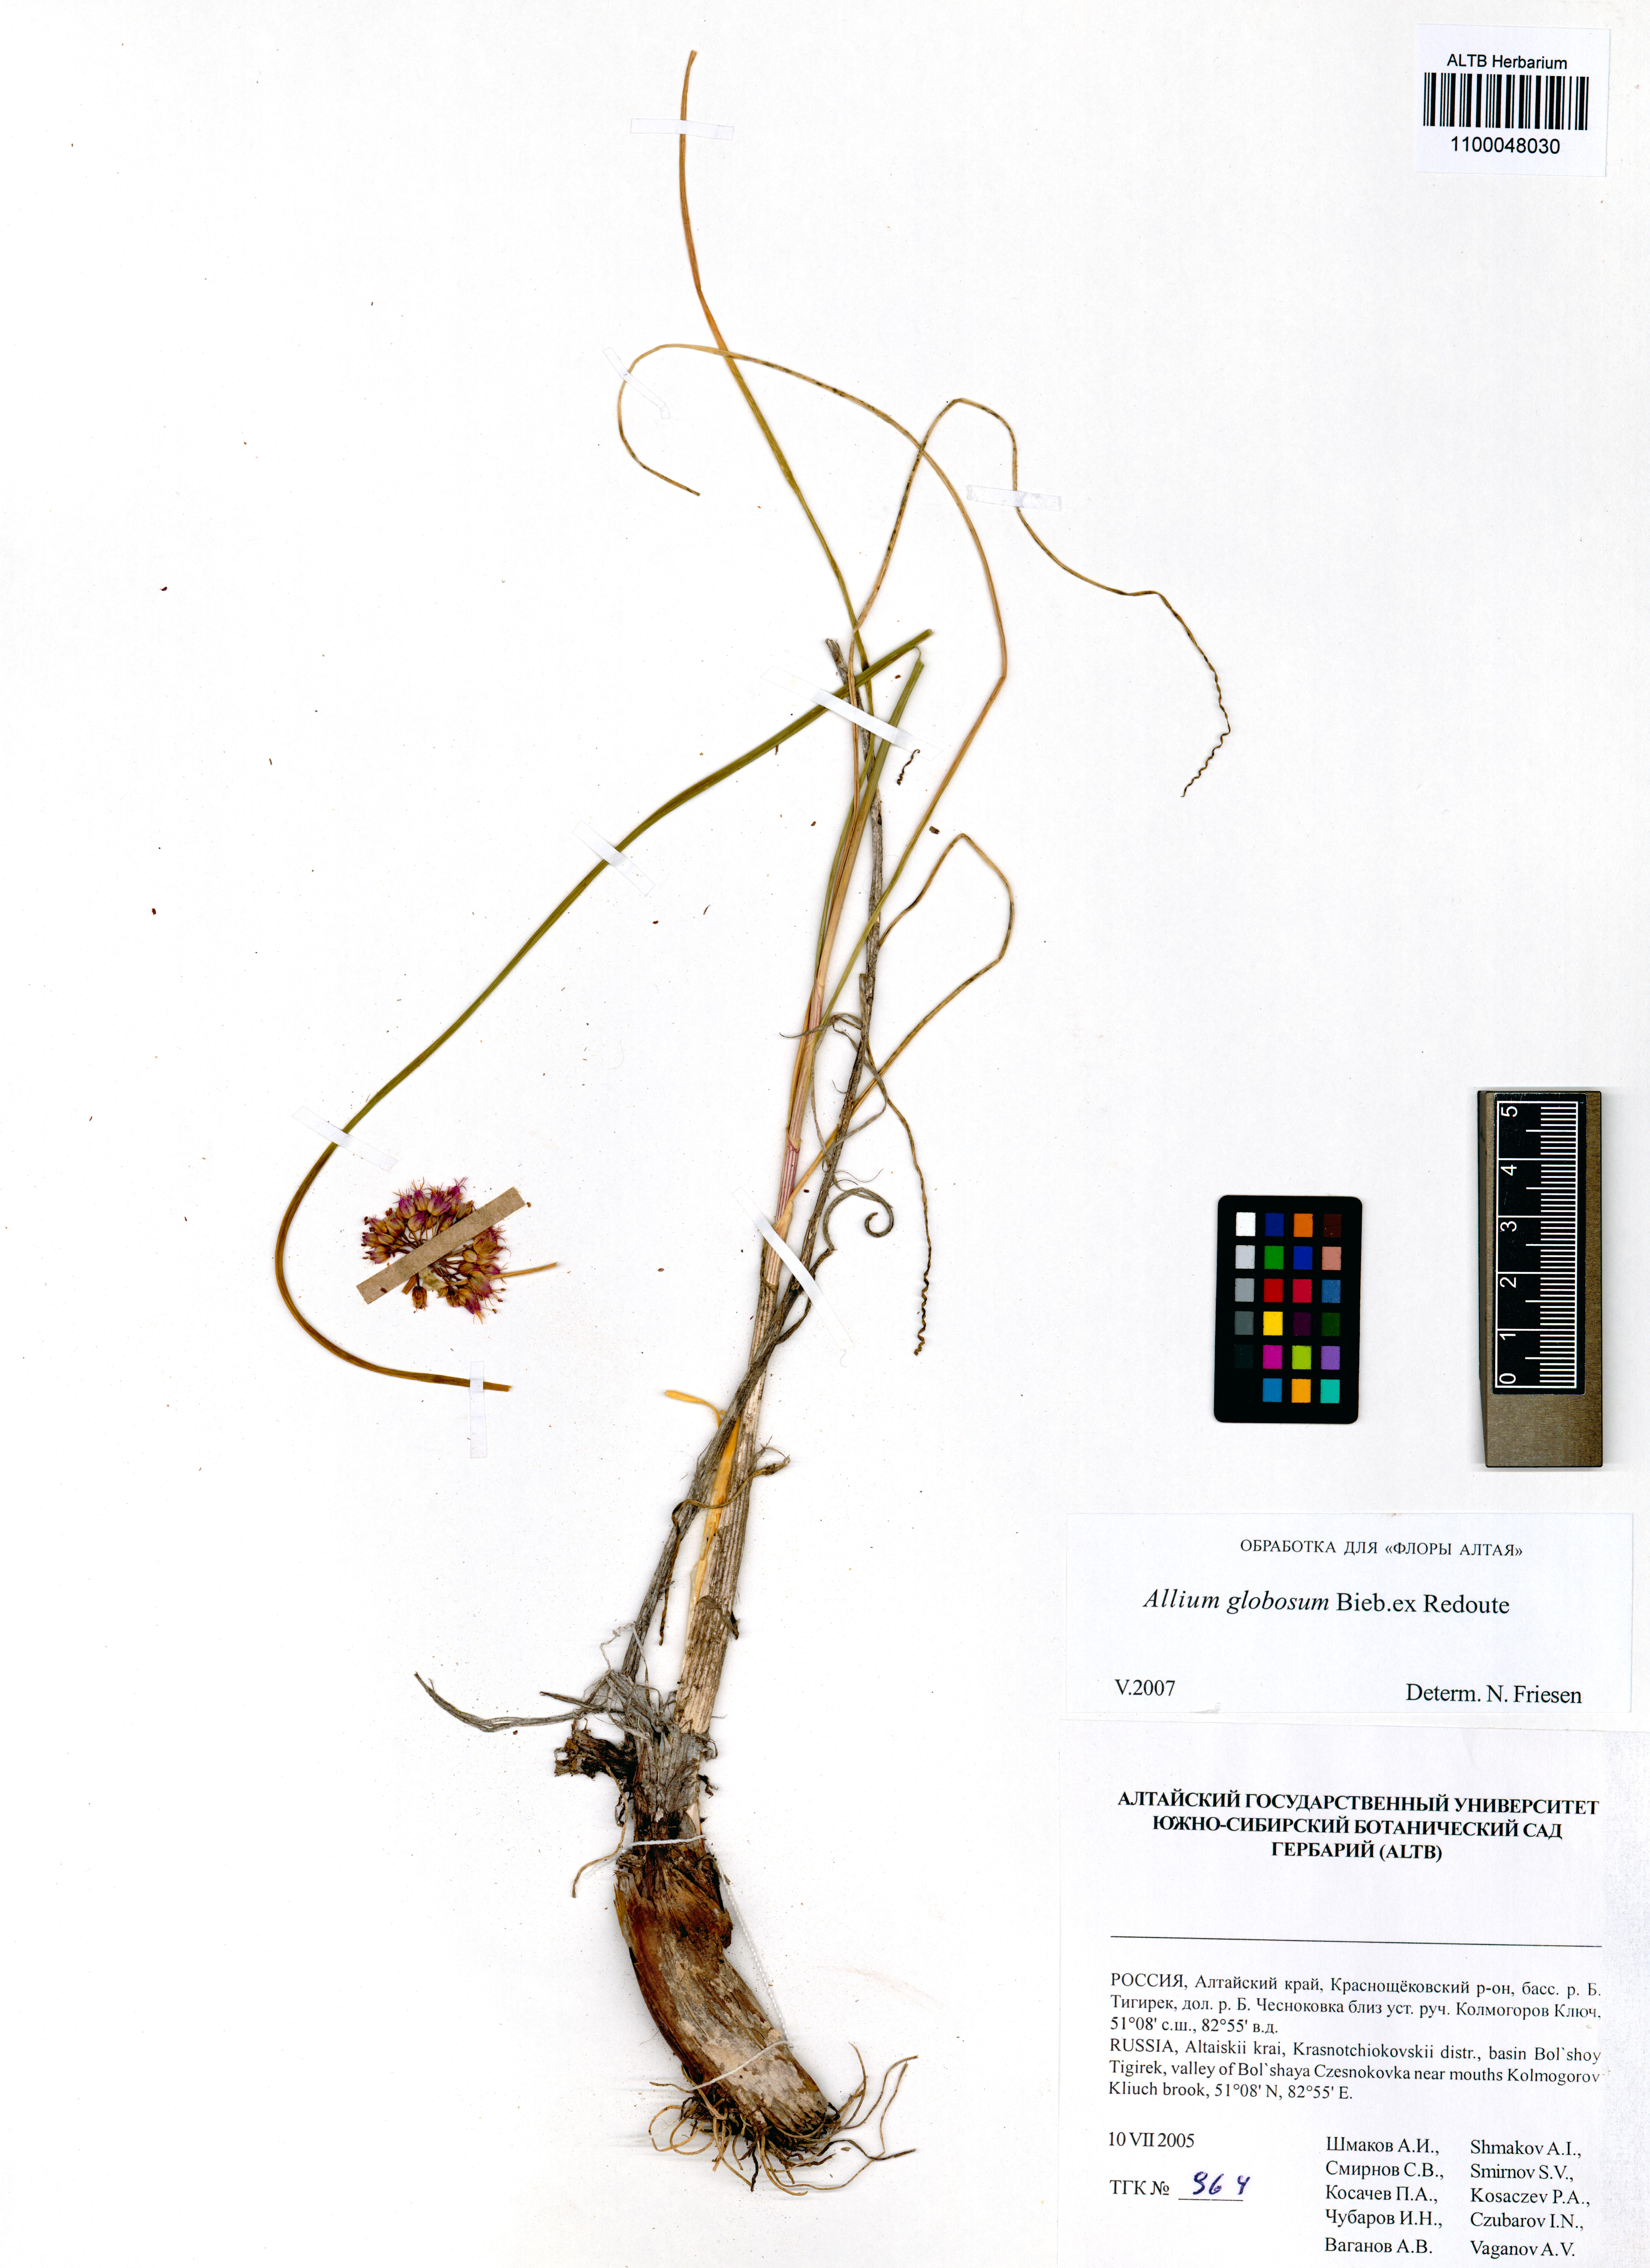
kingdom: Plantae
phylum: Tracheophyta
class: Liliopsida
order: Asparagales
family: Amaryllidaceae
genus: Allium
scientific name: Allium saxatile
